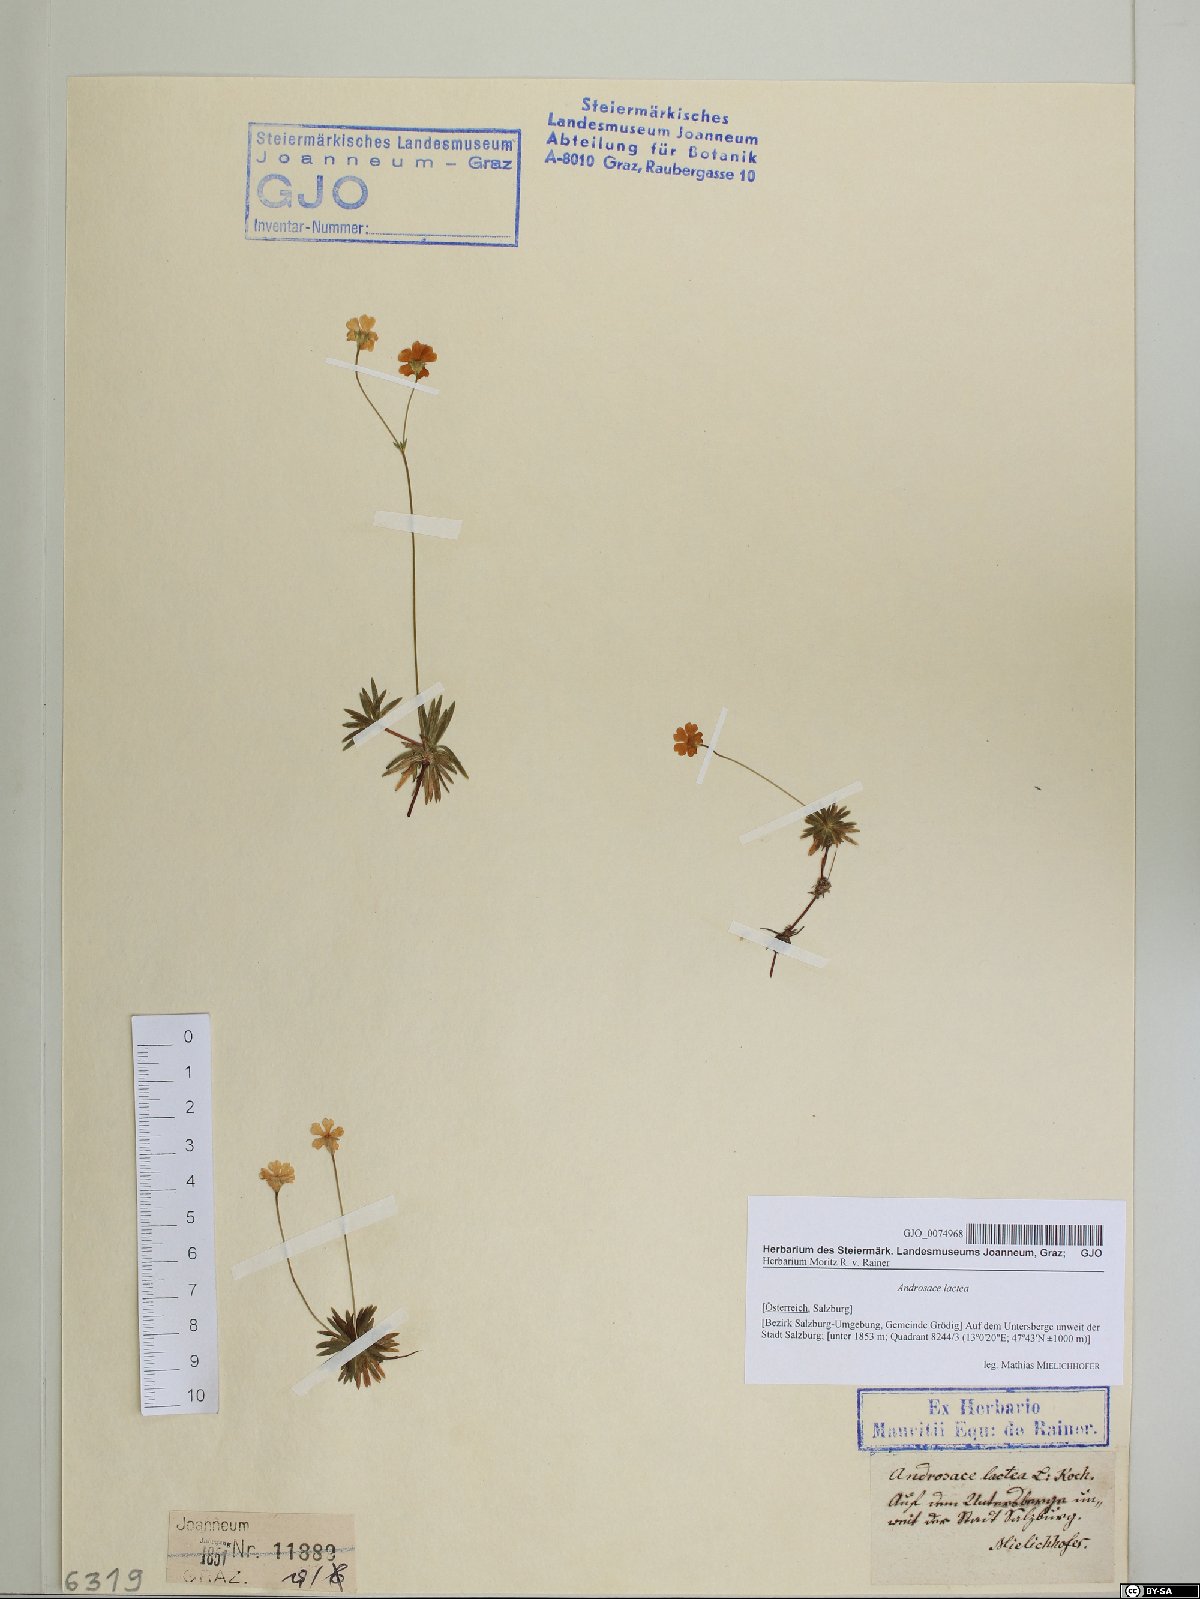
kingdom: Plantae
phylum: Tracheophyta
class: Magnoliopsida
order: Ericales
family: Primulaceae
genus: Androsace
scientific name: Androsace lactea
